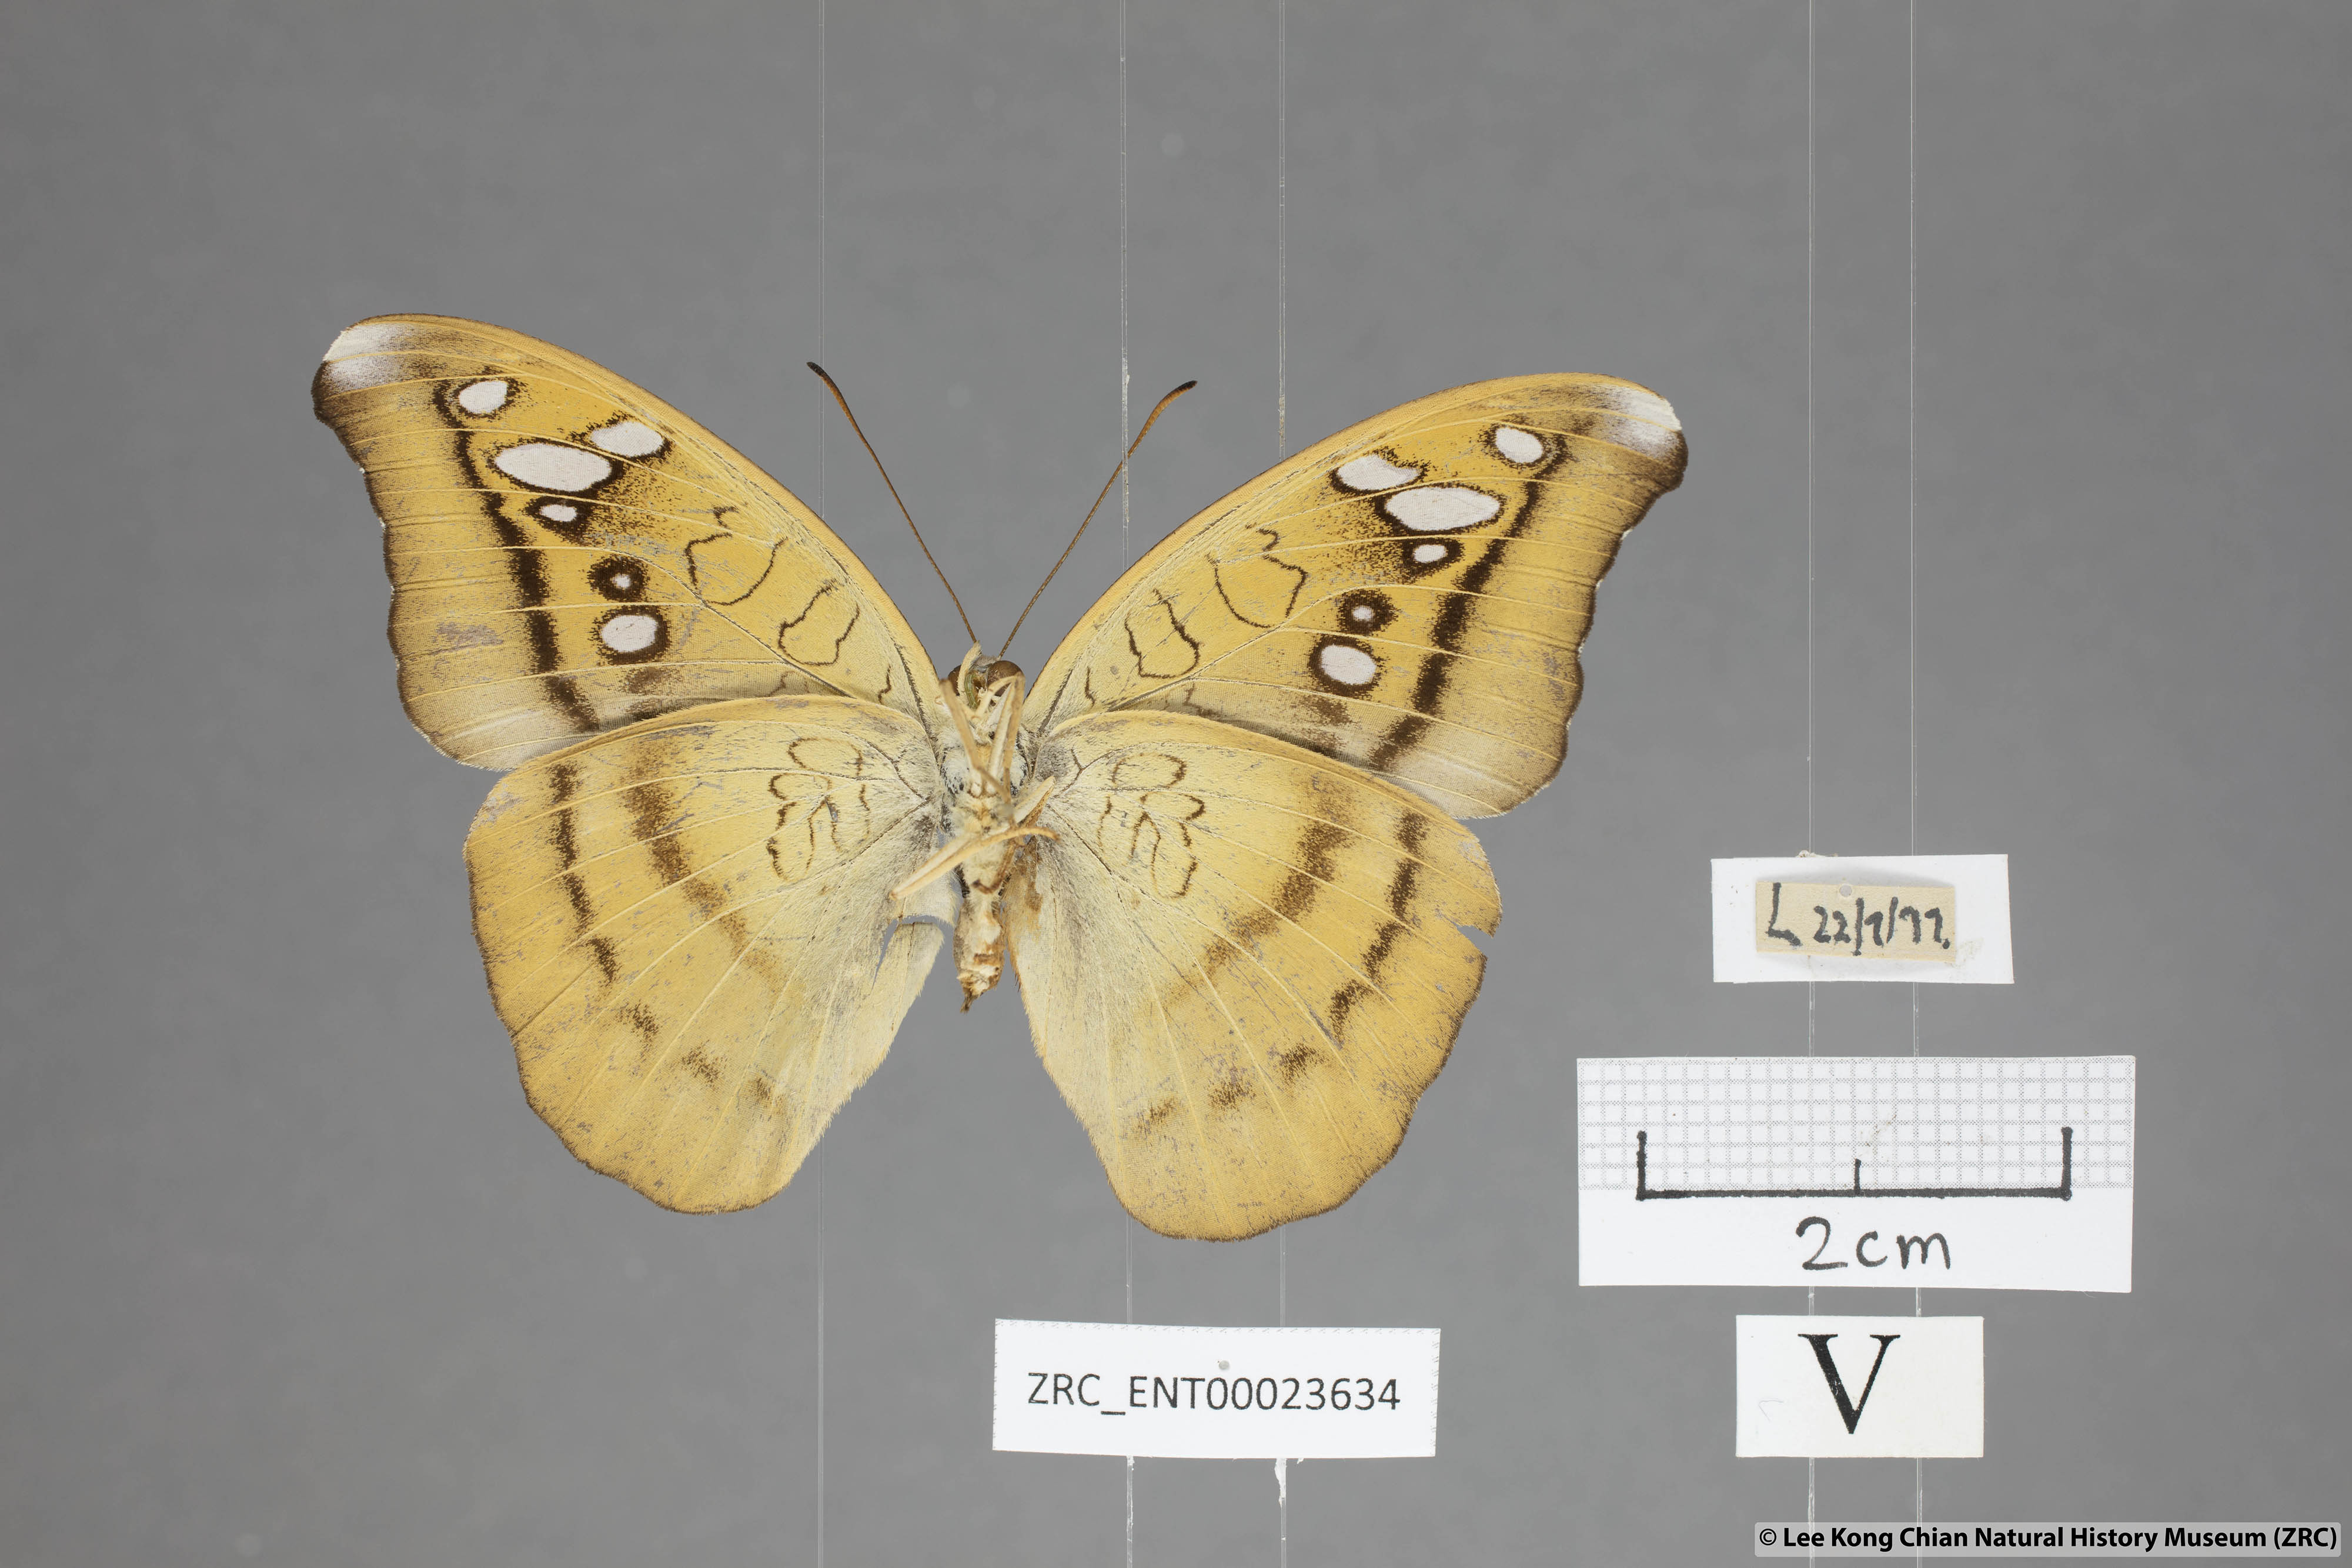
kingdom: Animalia
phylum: Arthropoda
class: Insecta
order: Lepidoptera
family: Nymphalidae
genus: Tanaecia
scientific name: Tanaecia cocytus
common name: Lavender count
